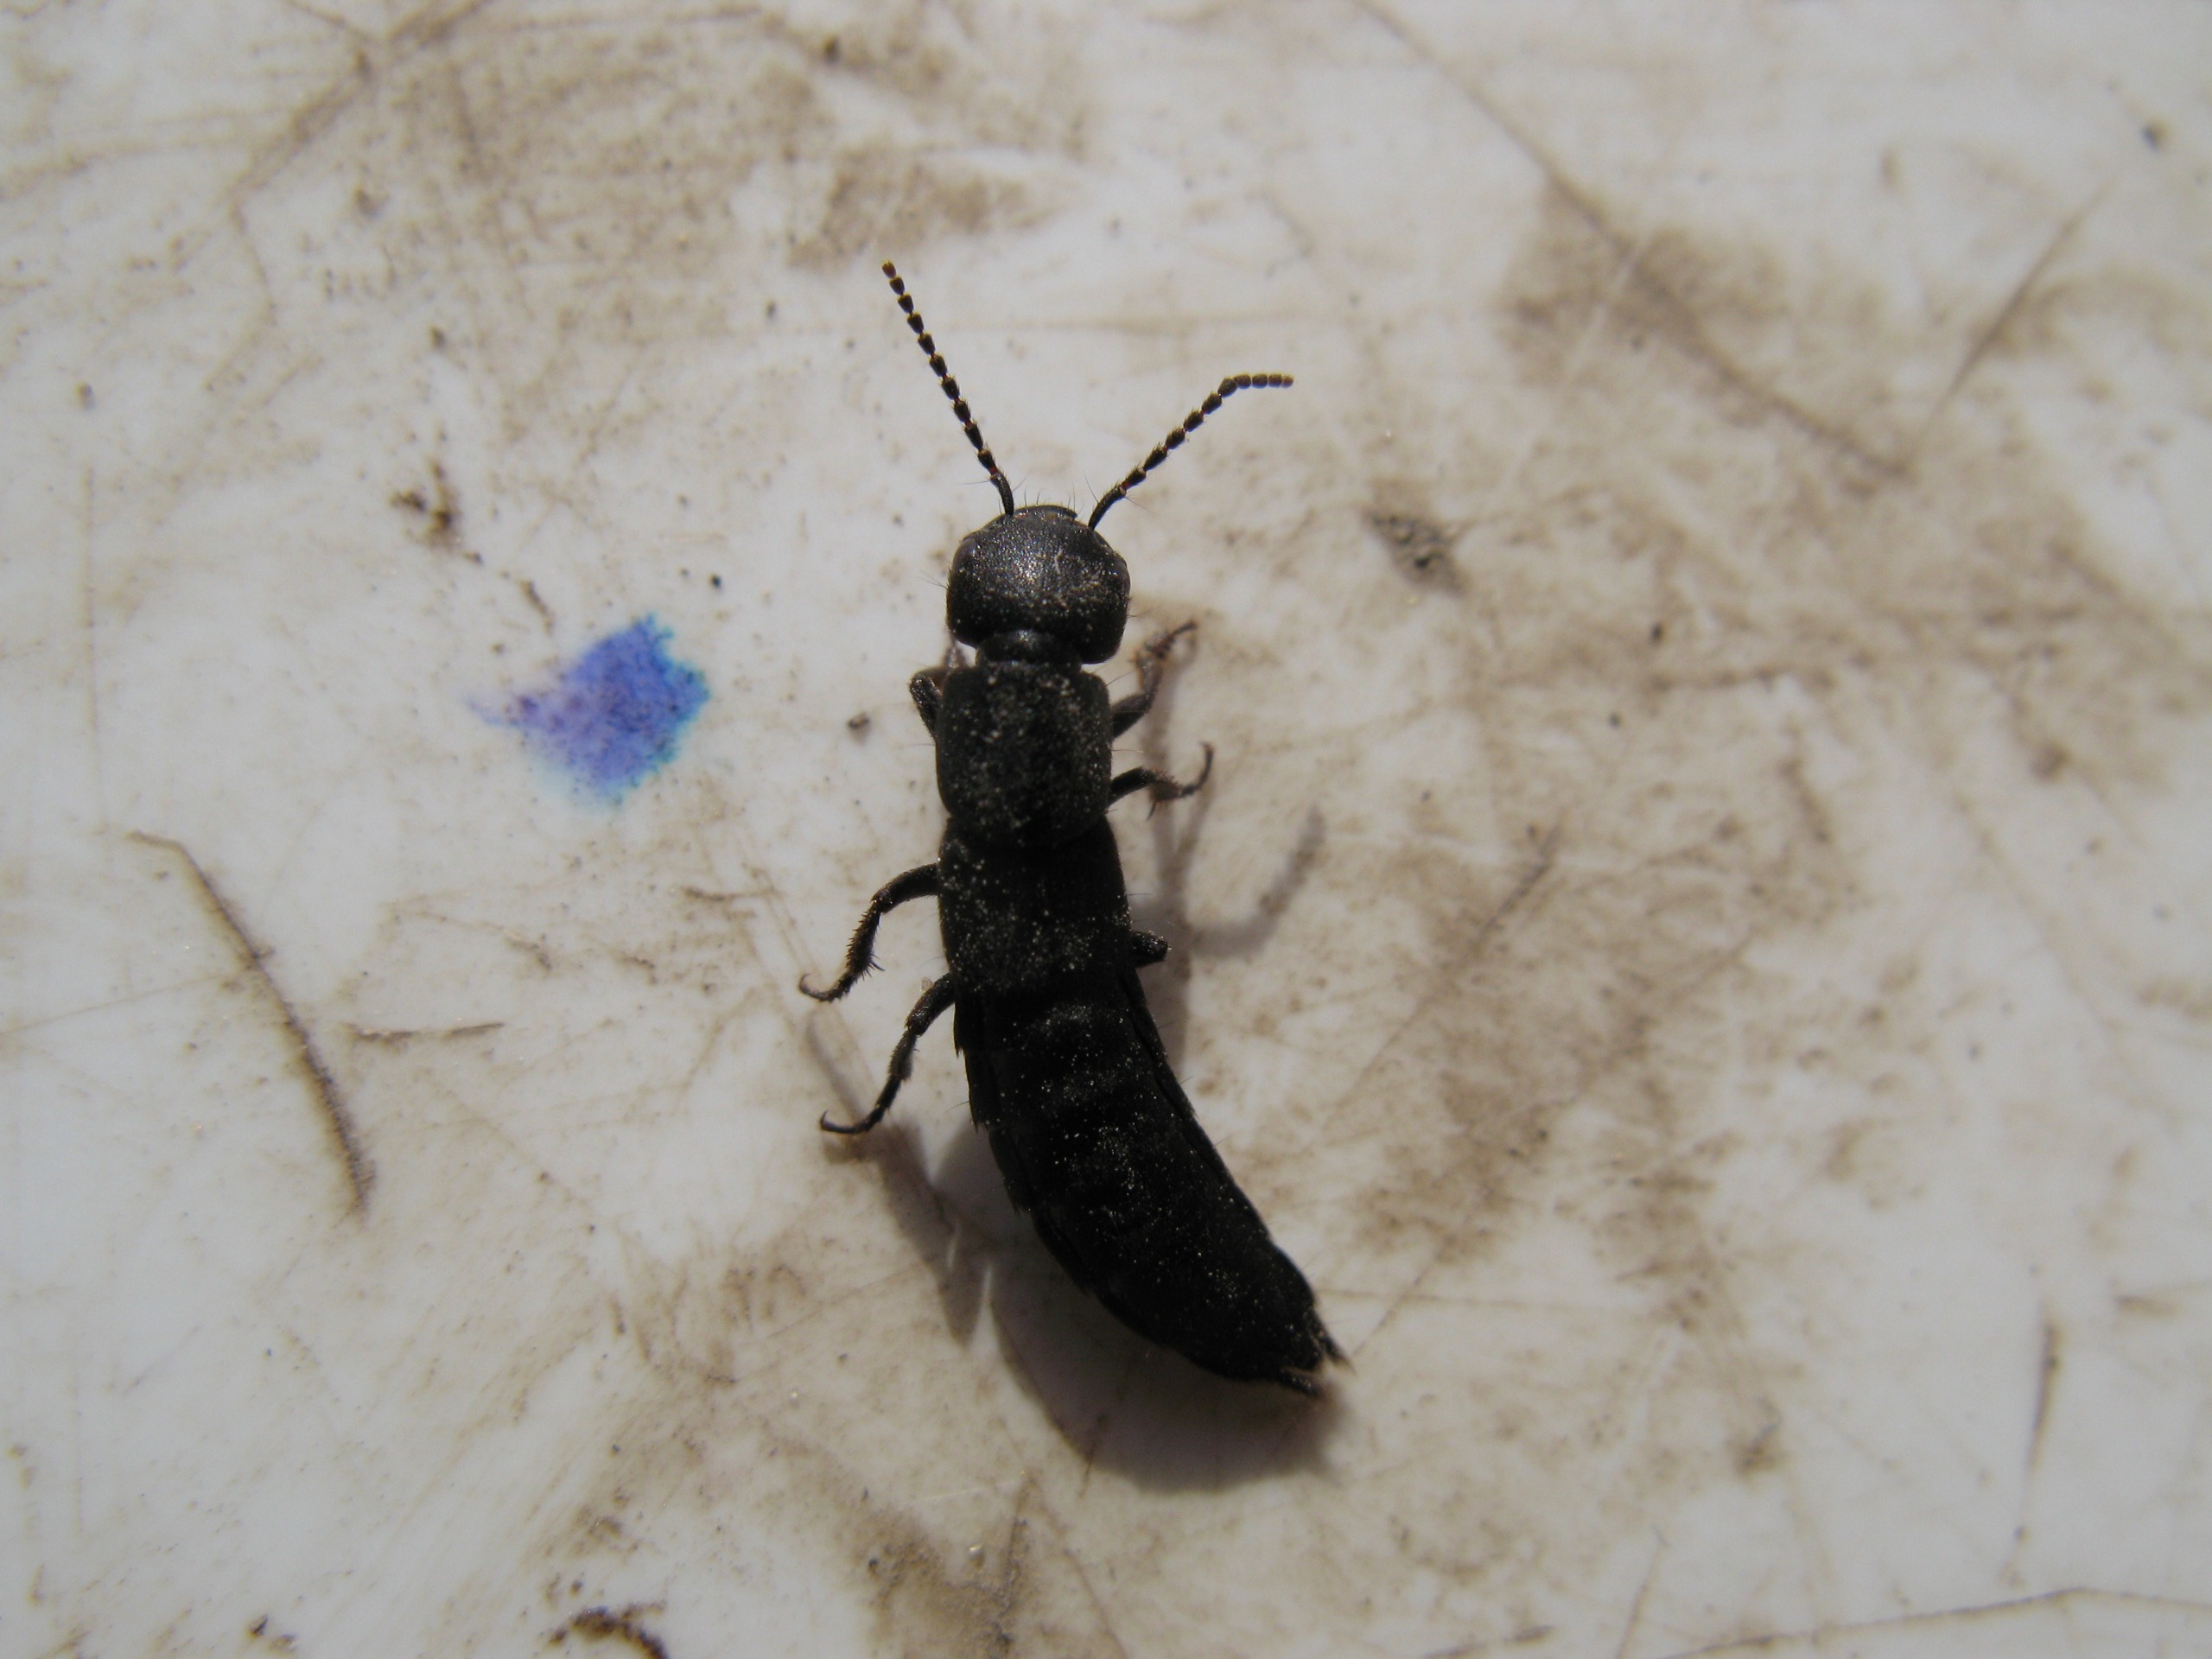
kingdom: Animalia
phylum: Arthropoda
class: Insecta
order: Coleoptera
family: Staphylinidae
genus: Ocypus
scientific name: Ocypus olens
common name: Stor rovbille
